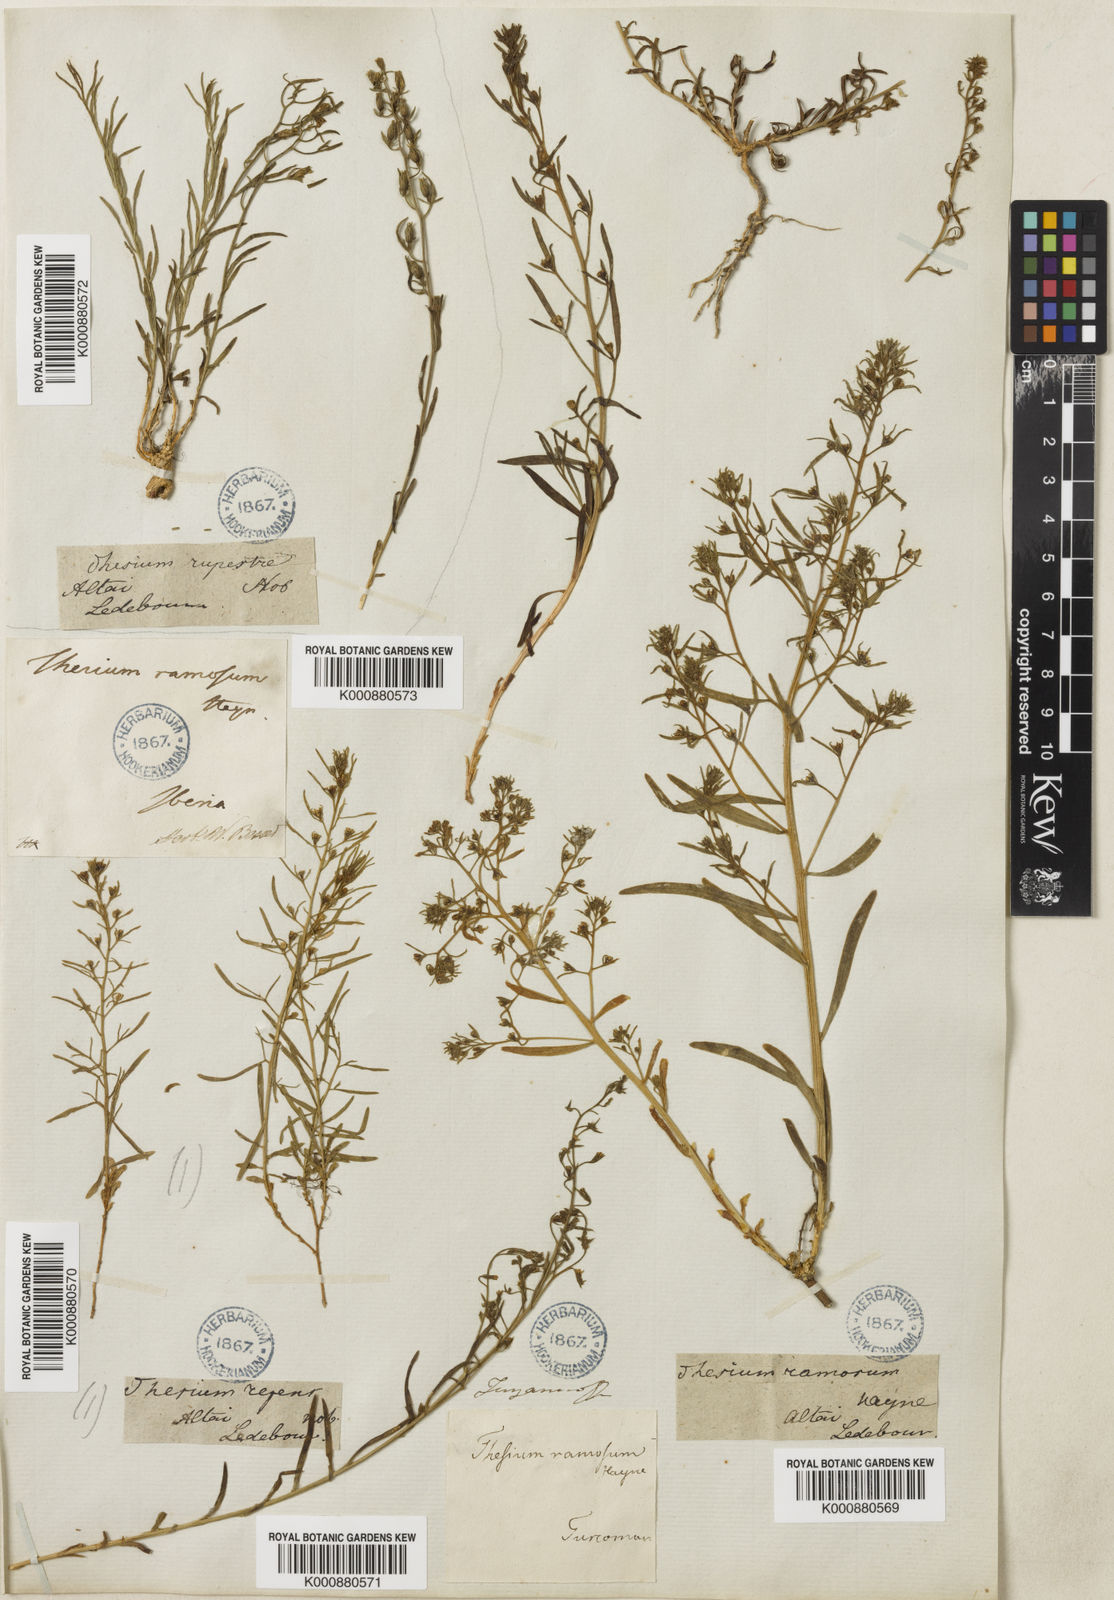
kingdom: Plantae
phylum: Tracheophyta
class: Magnoliopsida
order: Santalales
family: Thesiaceae
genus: Thesium
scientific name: Thesium ramosum
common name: Field thesium
